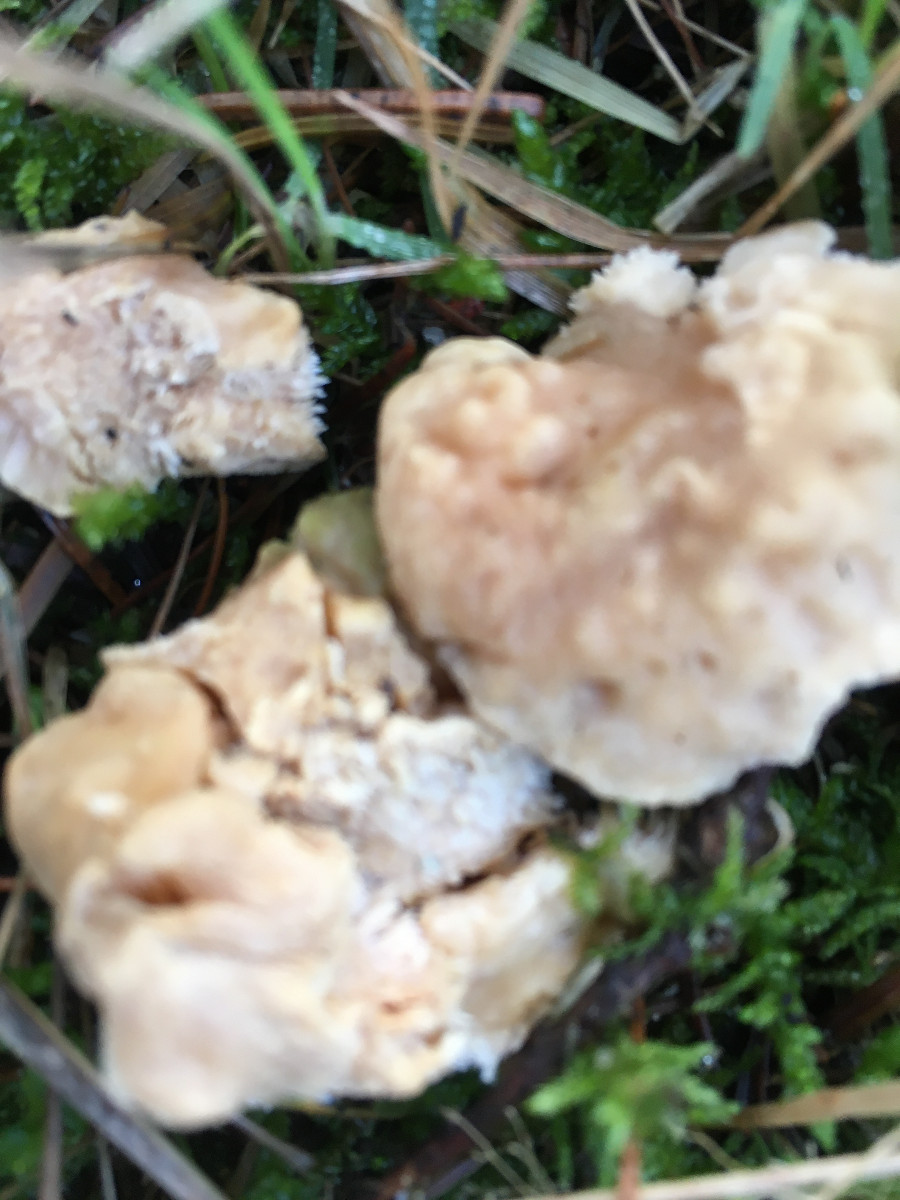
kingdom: Fungi
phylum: Basidiomycota
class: Agaricomycetes
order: Cantharellales
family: Hydnaceae
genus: Hydnum
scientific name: Hydnum
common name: pigsvamp
